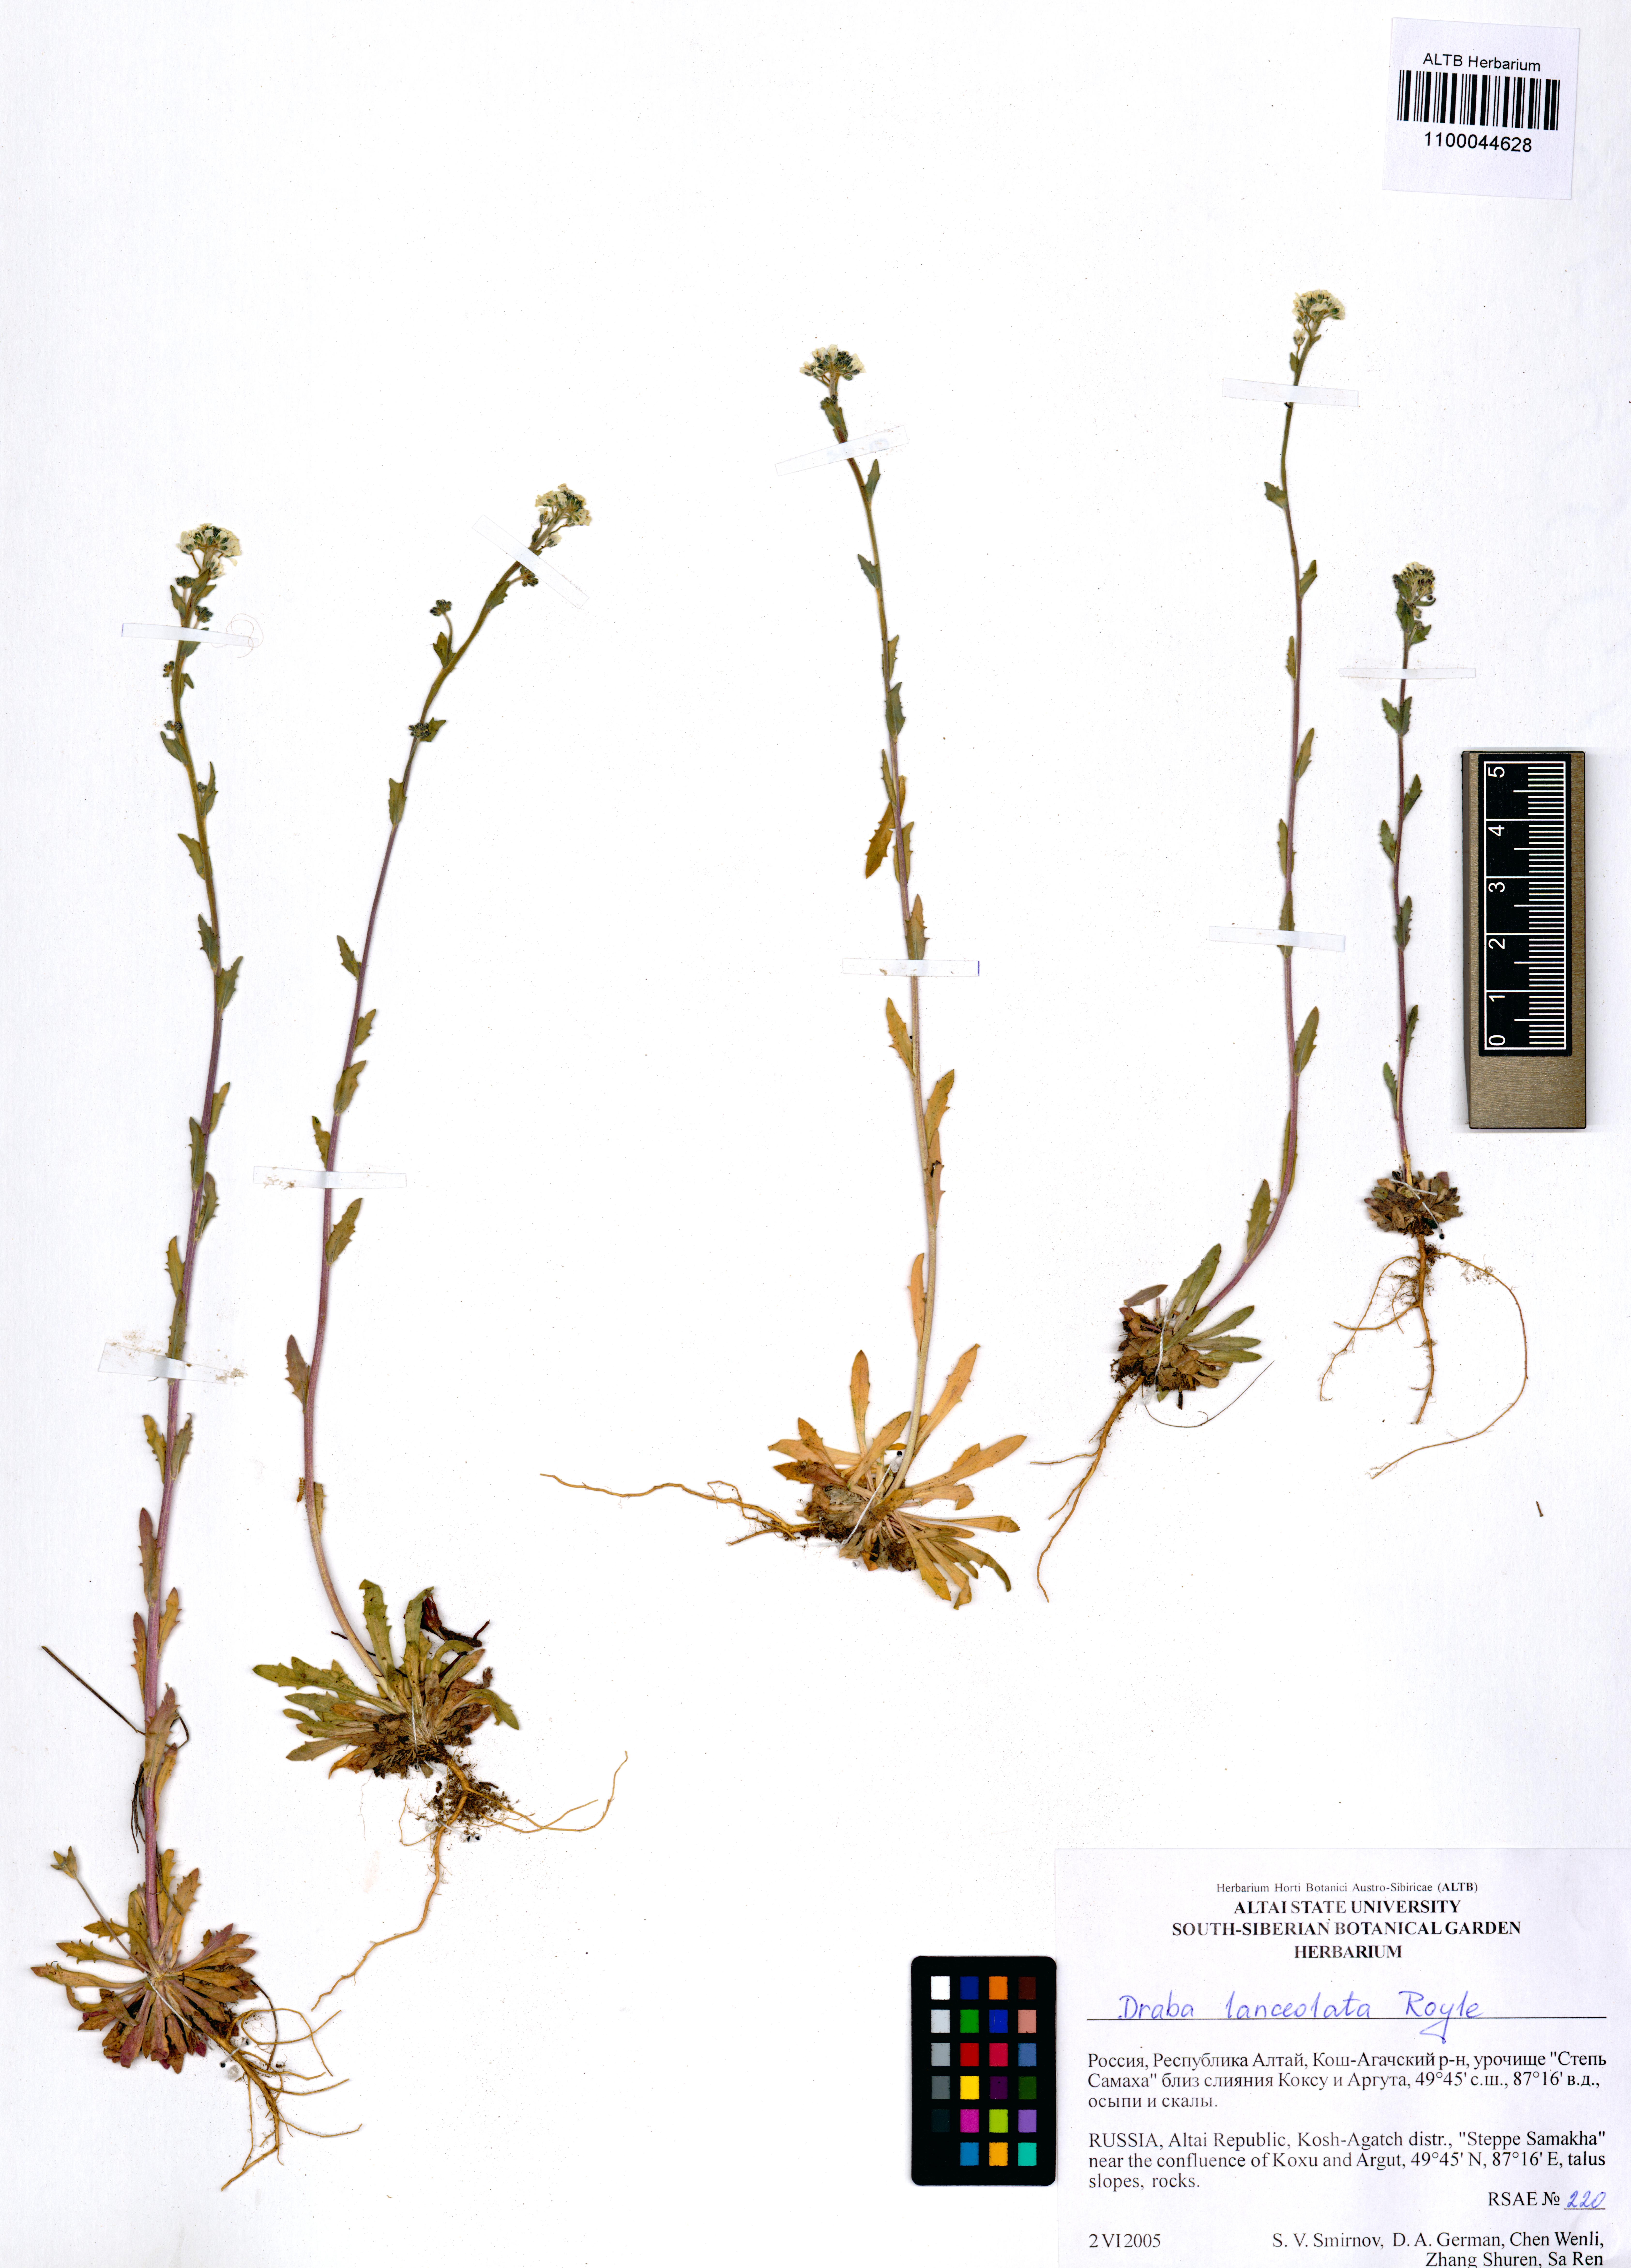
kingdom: Plantae
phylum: Tracheophyta
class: Magnoliopsida
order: Brassicales
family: Brassicaceae
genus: Draba
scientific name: Draba lanceolata
